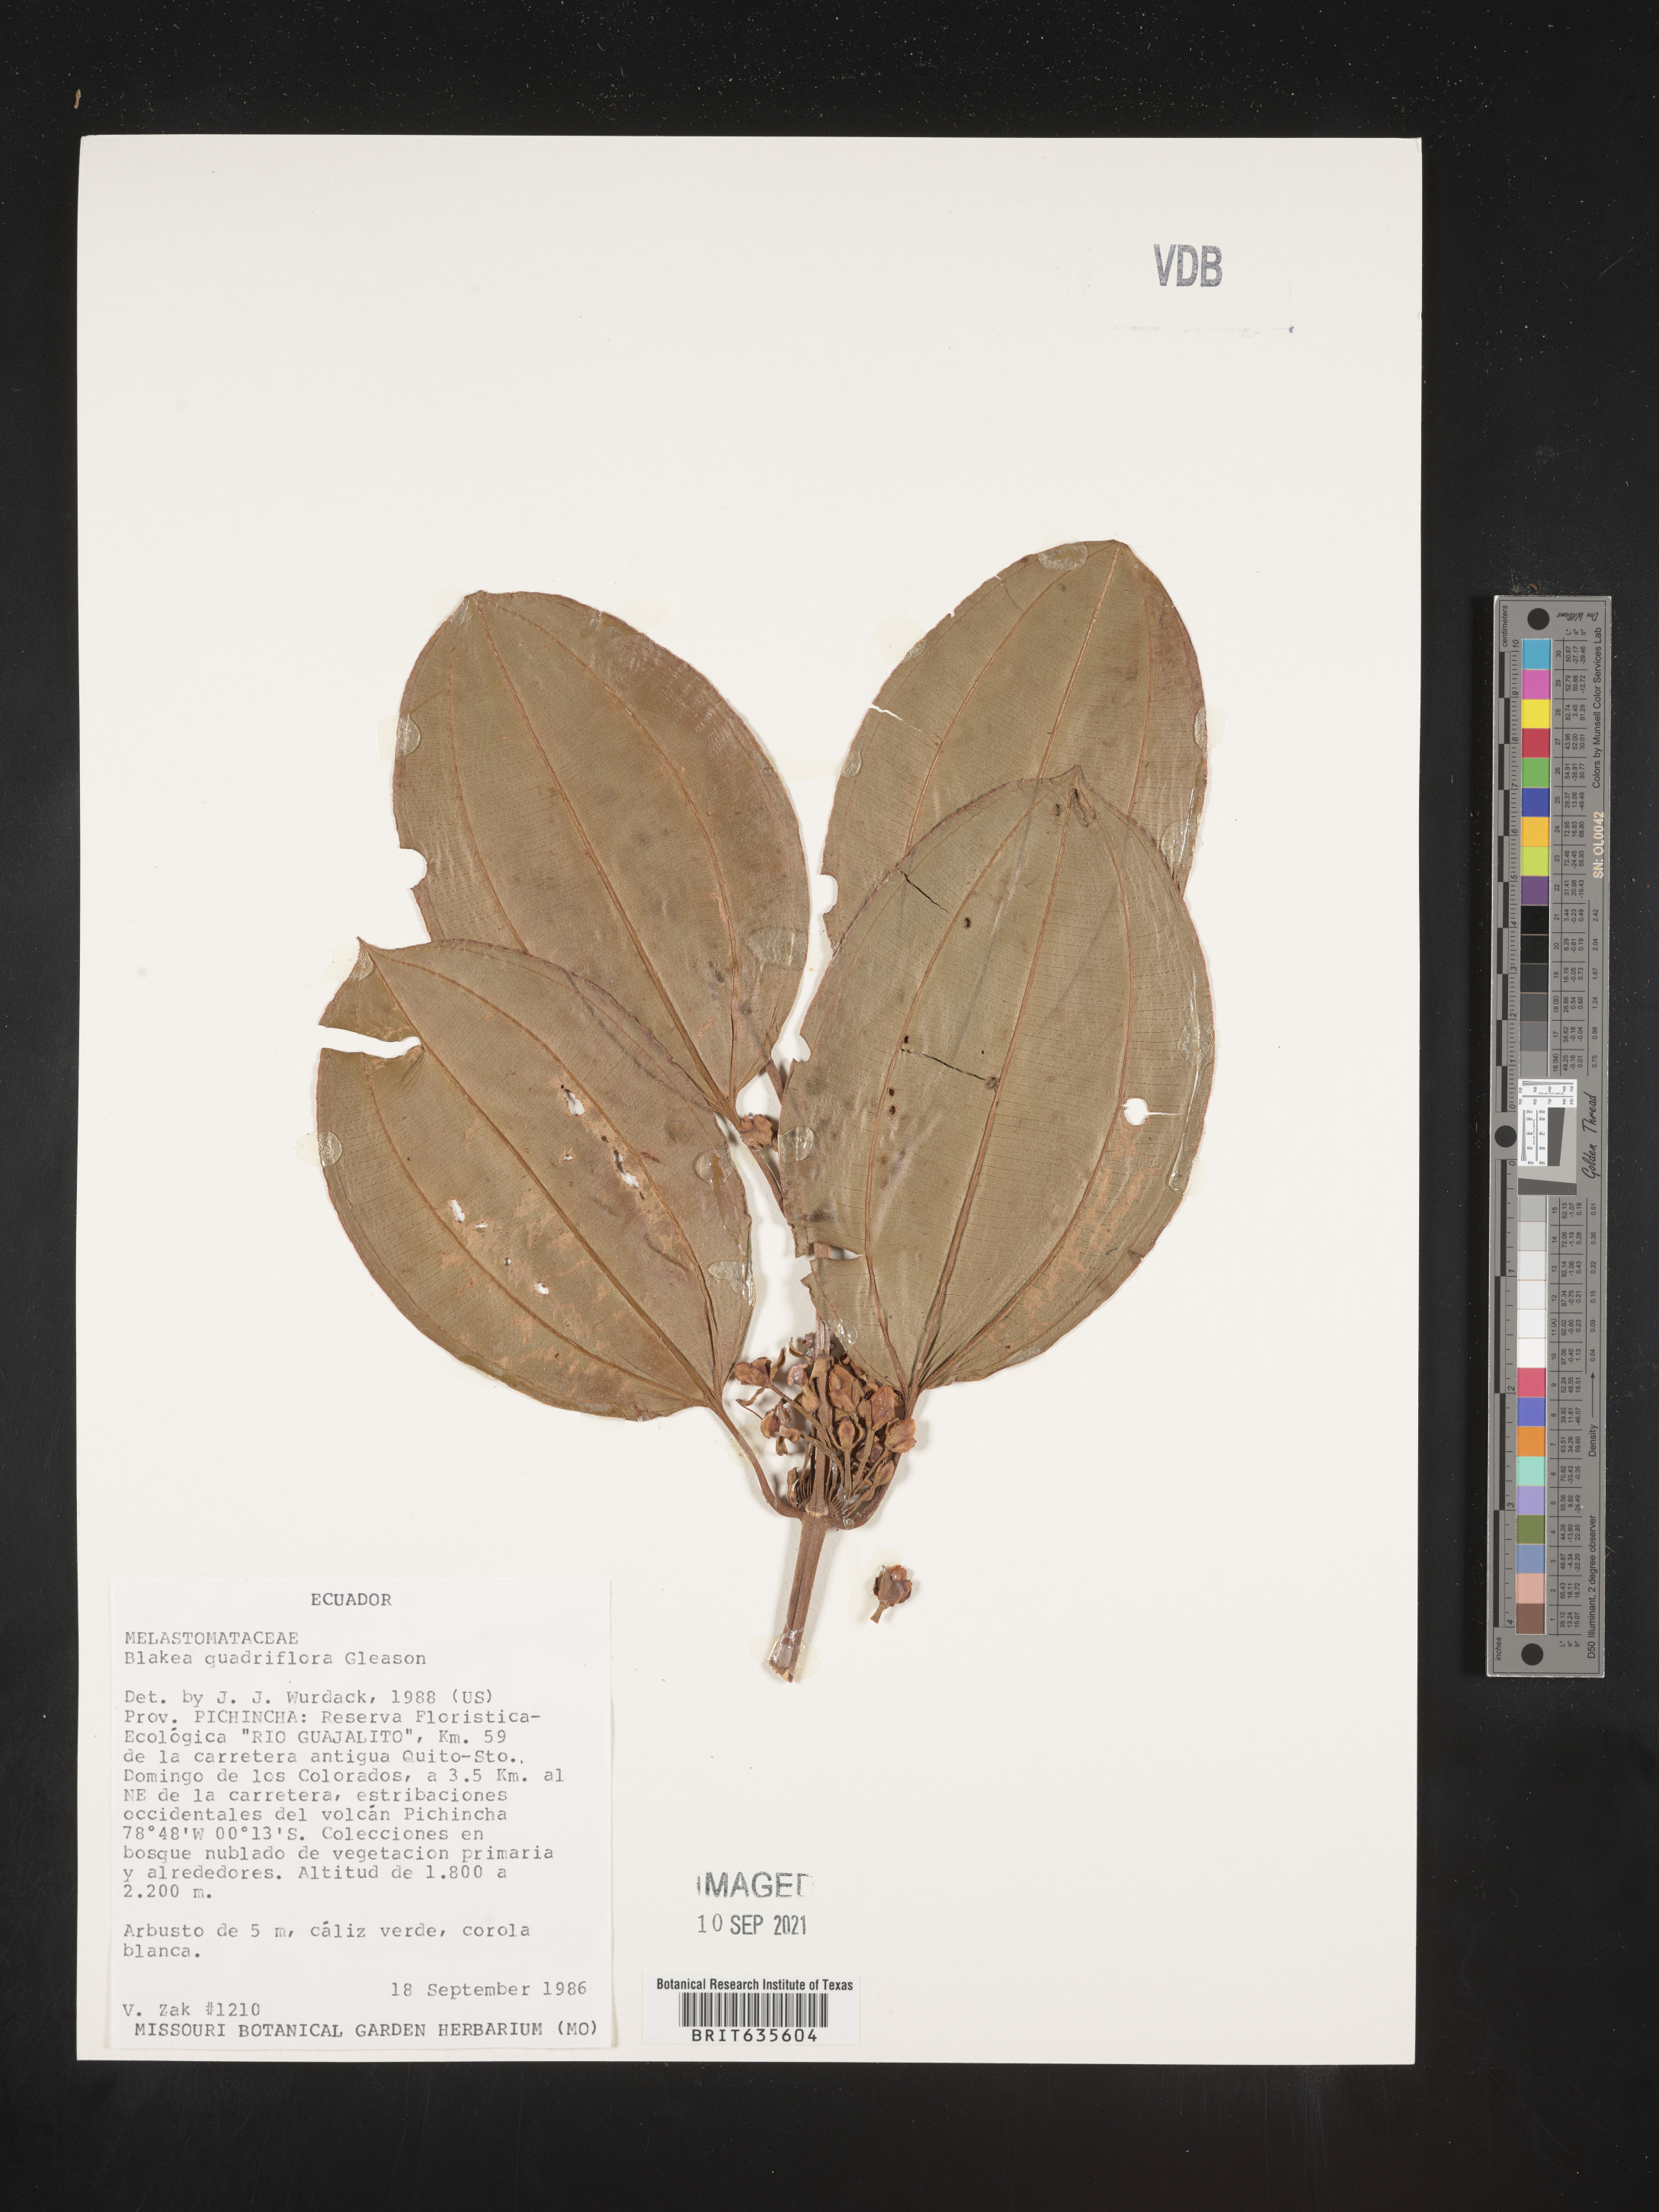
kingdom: Plantae
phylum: Tracheophyta
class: Magnoliopsida
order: Myrtales
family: Melastomataceae
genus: Blakea
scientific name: Blakea
